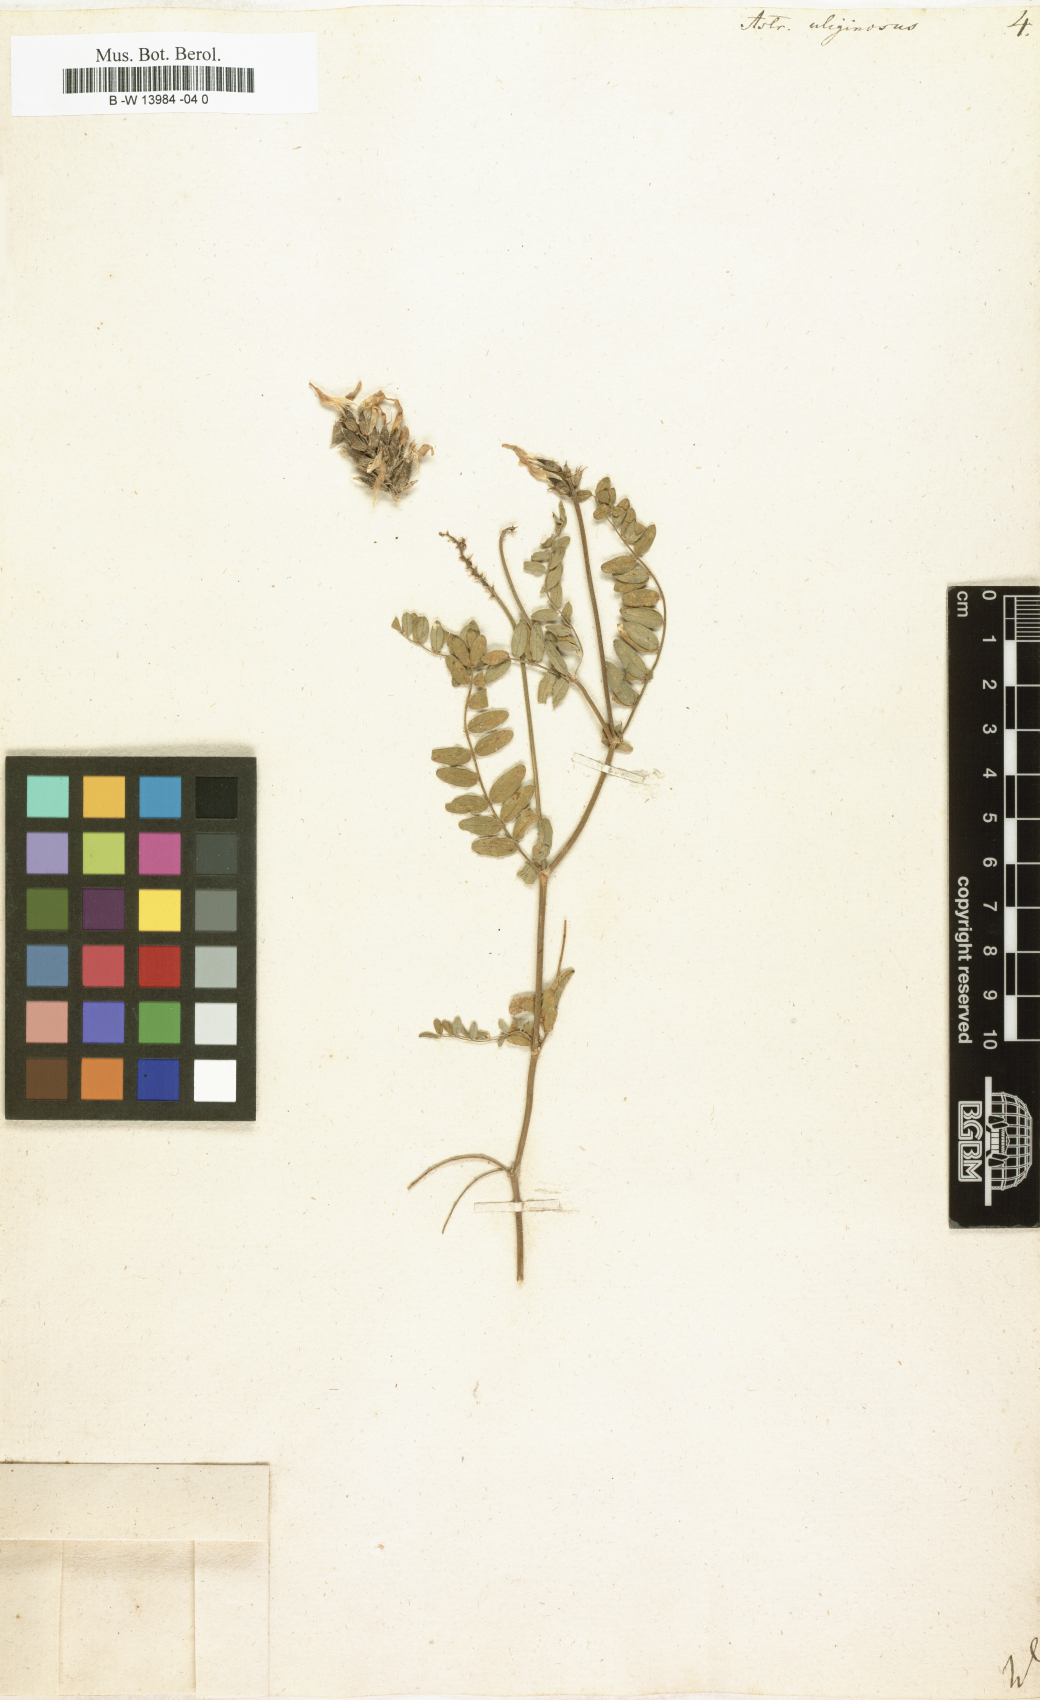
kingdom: Plantae
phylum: Tracheophyta
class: Magnoliopsida
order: Fabales
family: Fabaceae
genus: Astragalus
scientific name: Astragalus uliginosus
